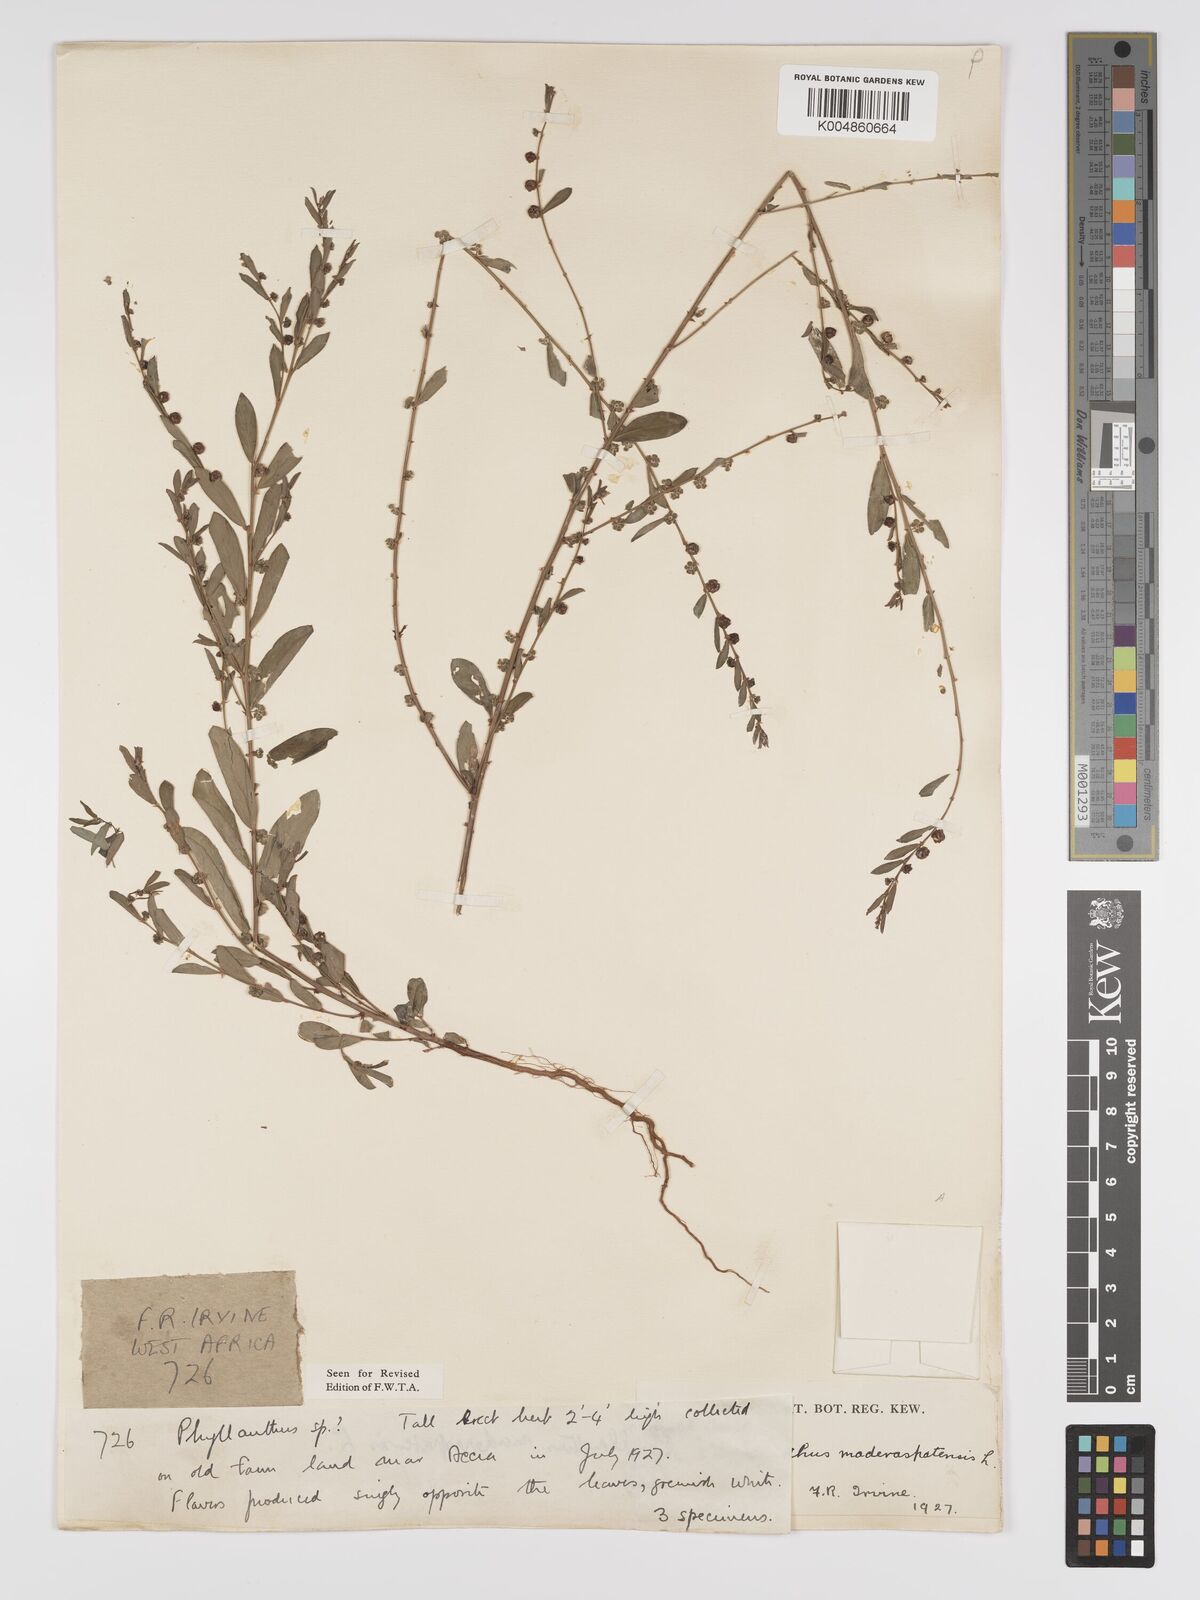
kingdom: Plantae
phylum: Tracheophyta
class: Magnoliopsida
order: Malpighiales
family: Phyllanthaceae
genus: Phyllanthus
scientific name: Phyllanthus
